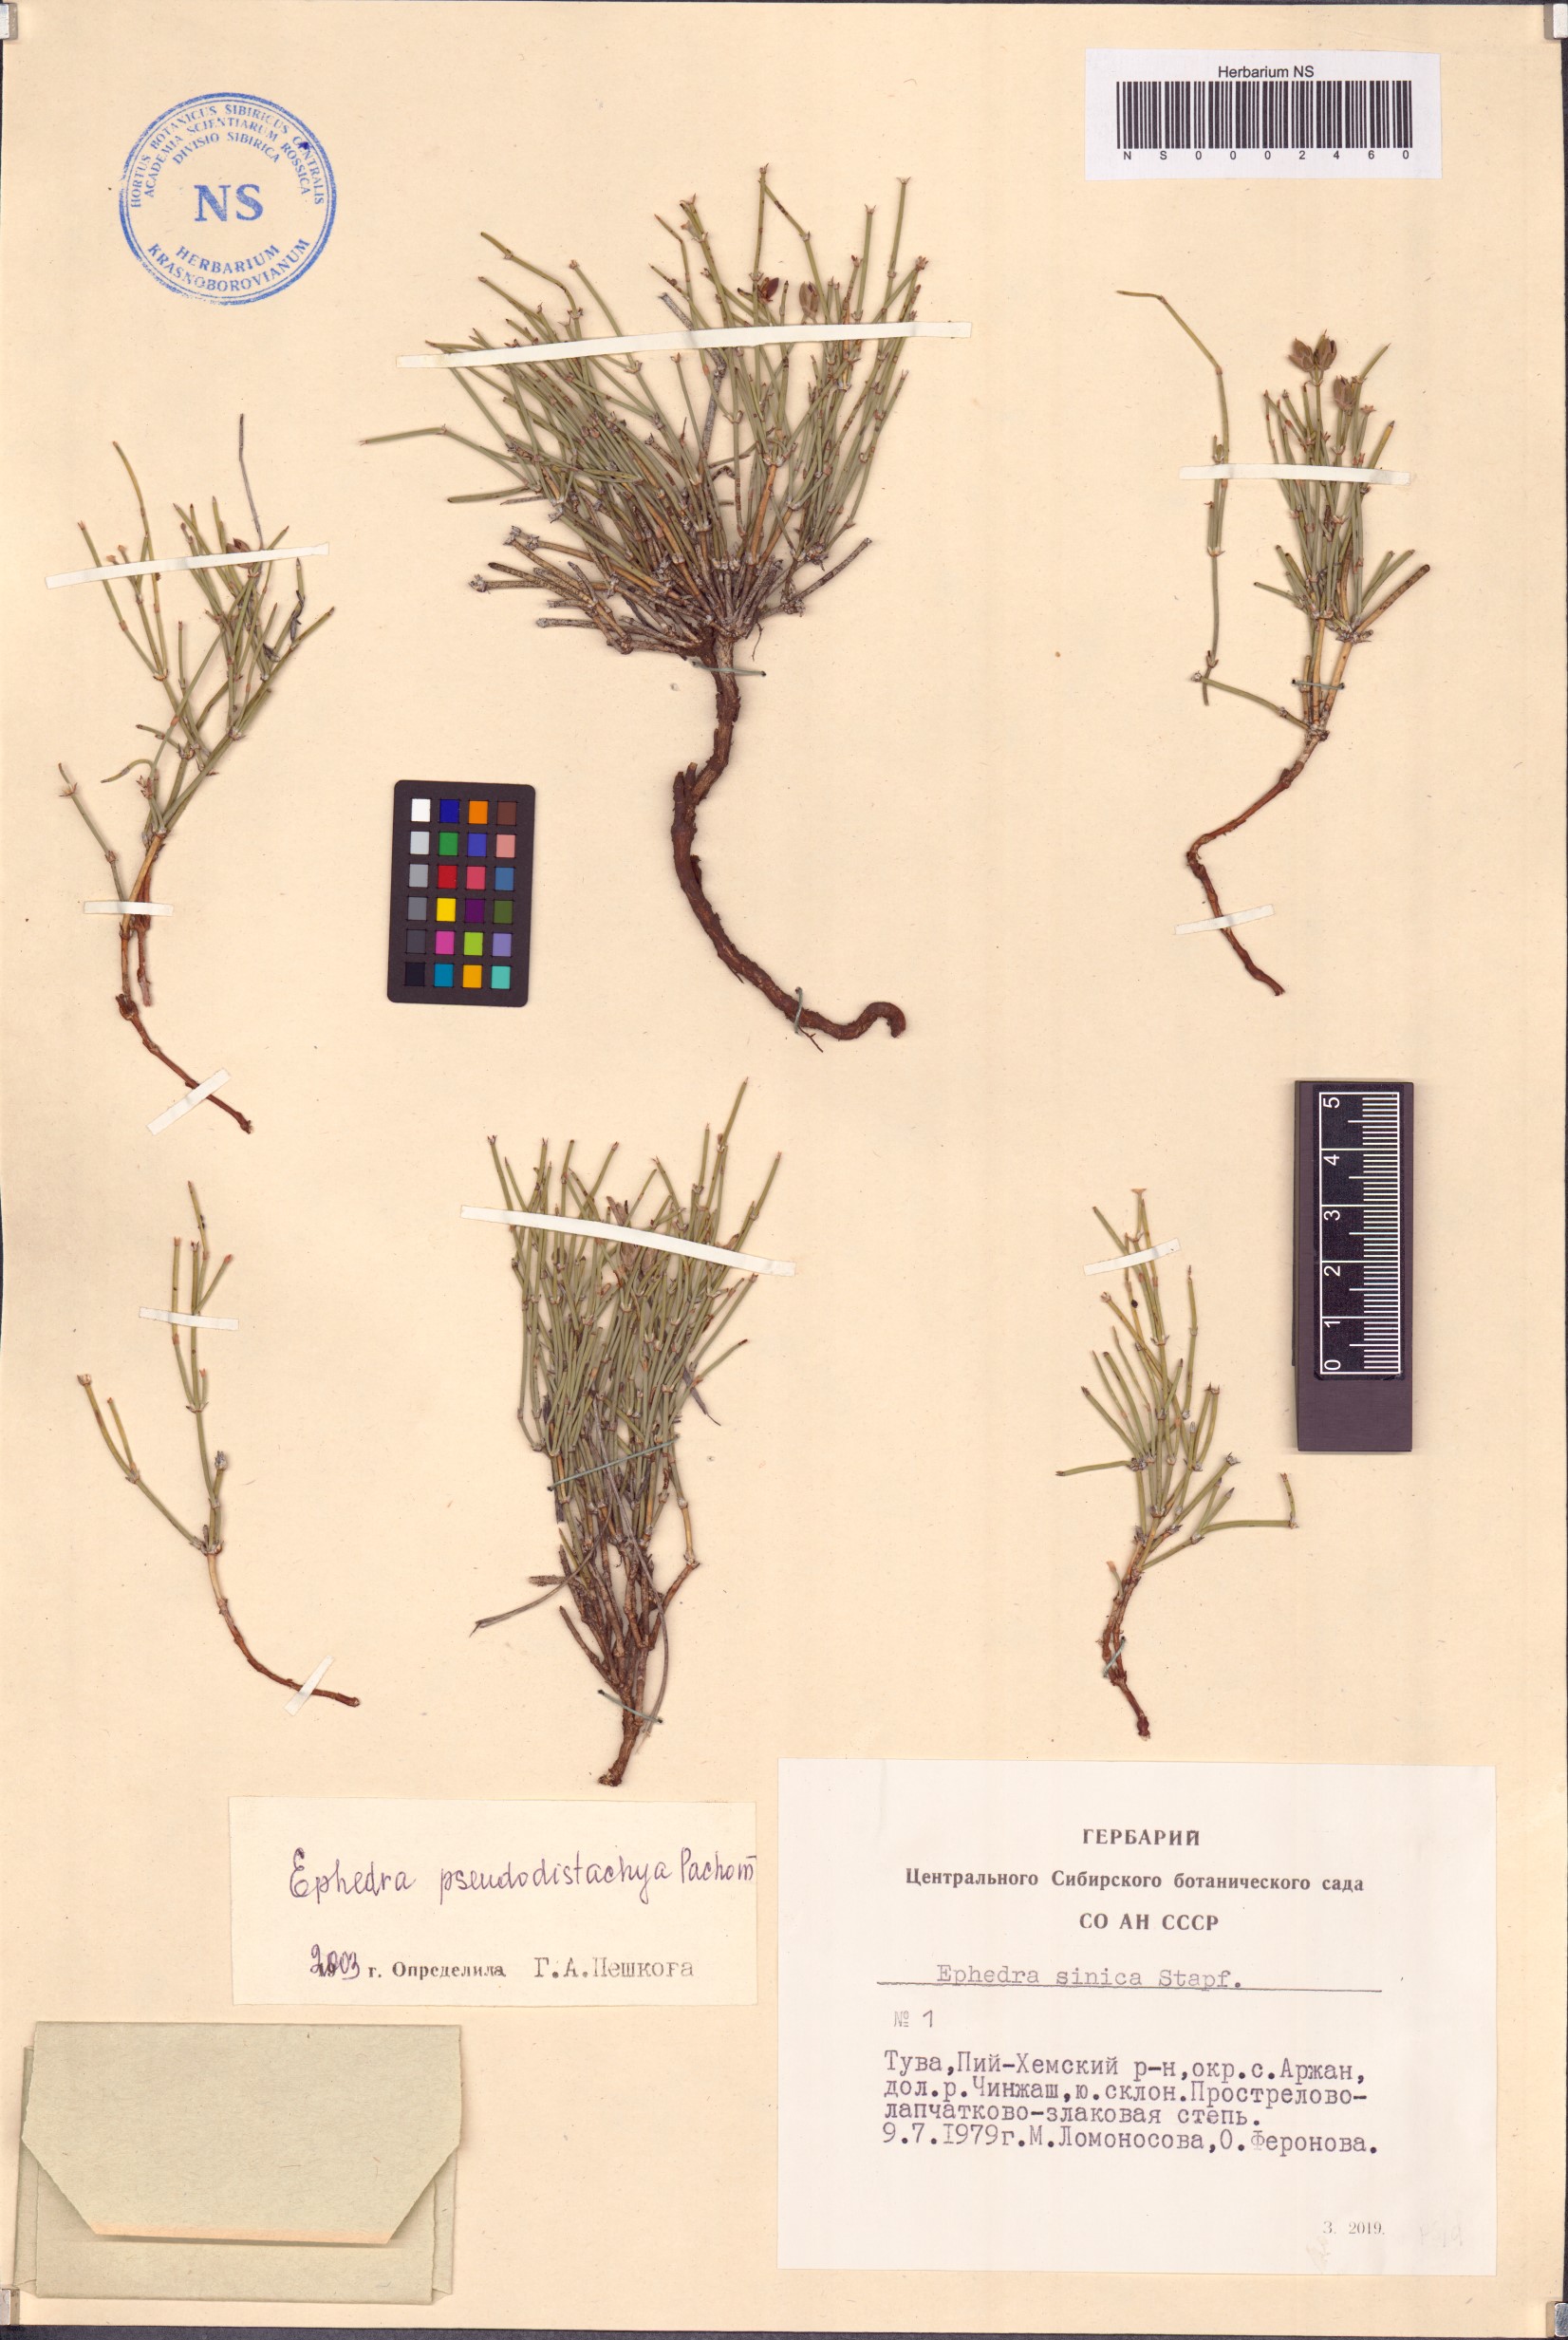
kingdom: Plantae
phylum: Tracheophyta
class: Gnetopsida
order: Ephedrales
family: Ephedraceae
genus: Ephedra
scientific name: Ephedra pseudodistachya
